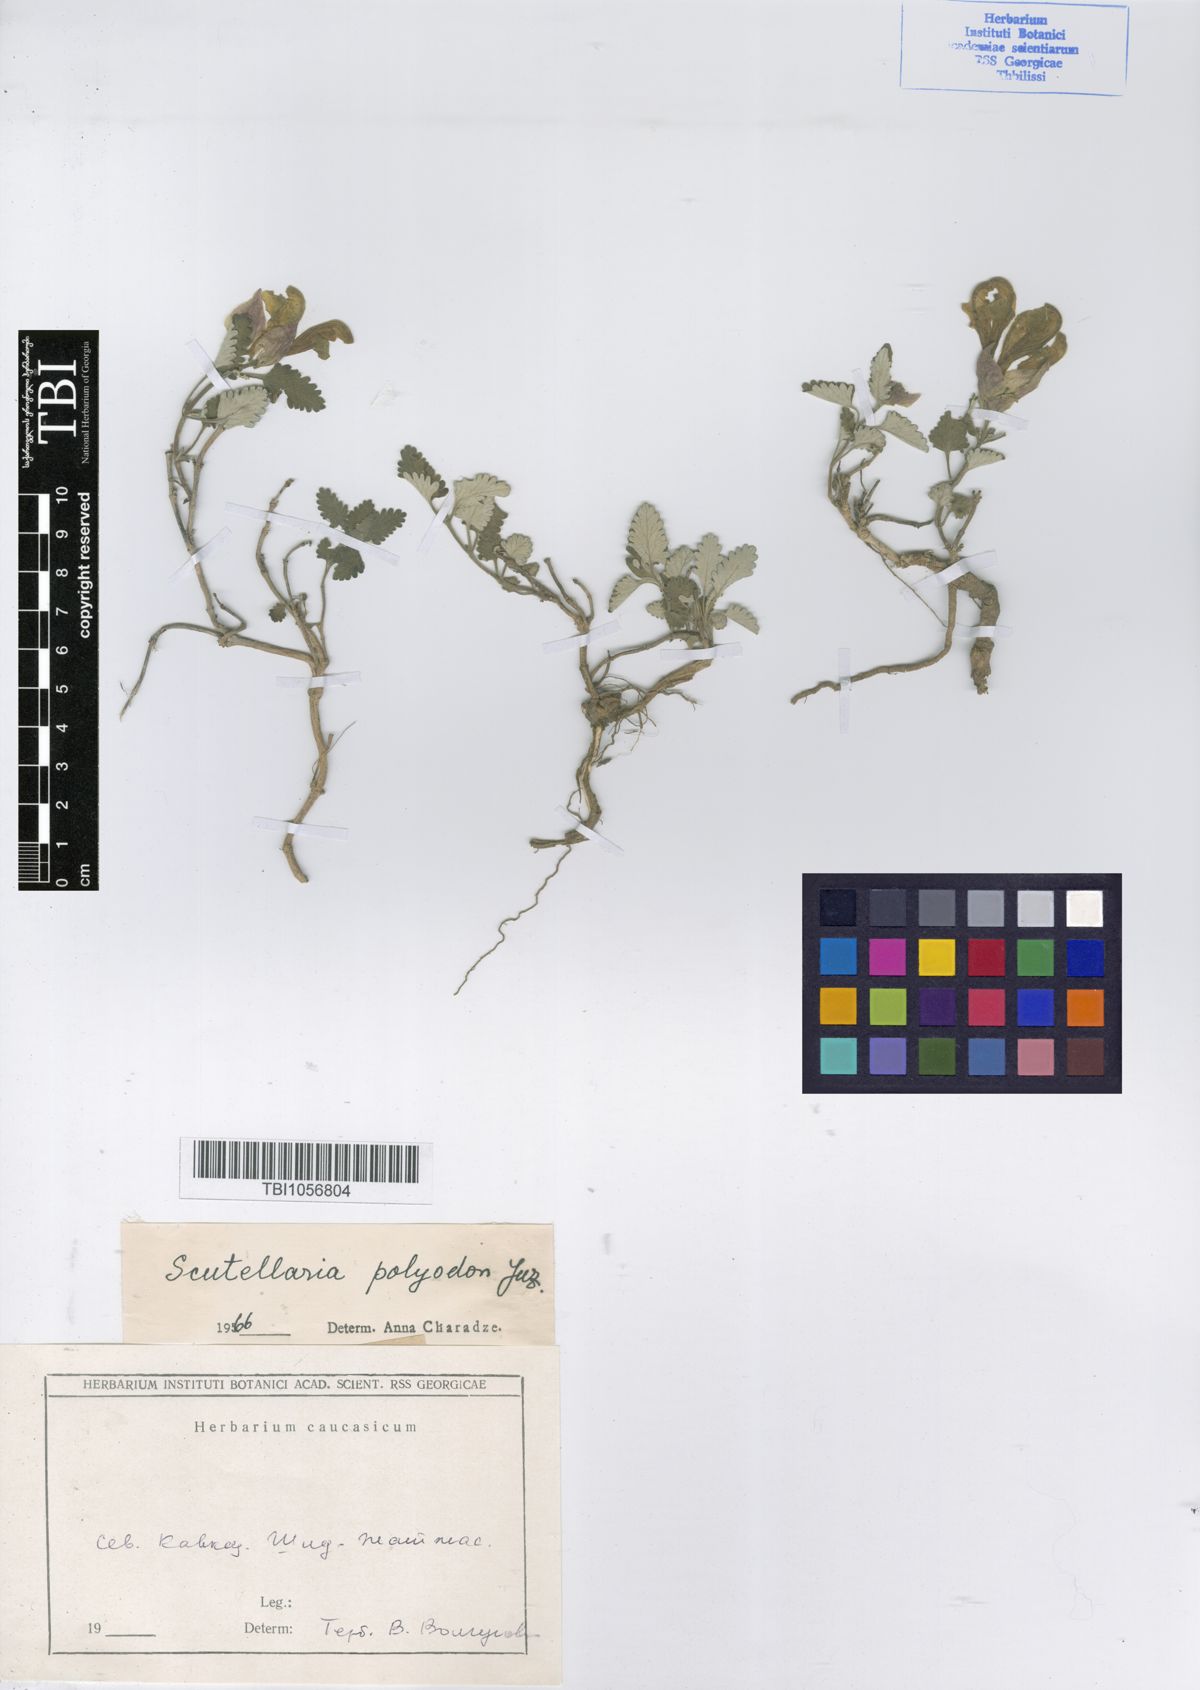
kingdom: Plantae
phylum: Tracheophyta
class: Magnoliopsida
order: Lamiales
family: Lamiaceae
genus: Scutellaria
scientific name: Scutellaria caucasica
